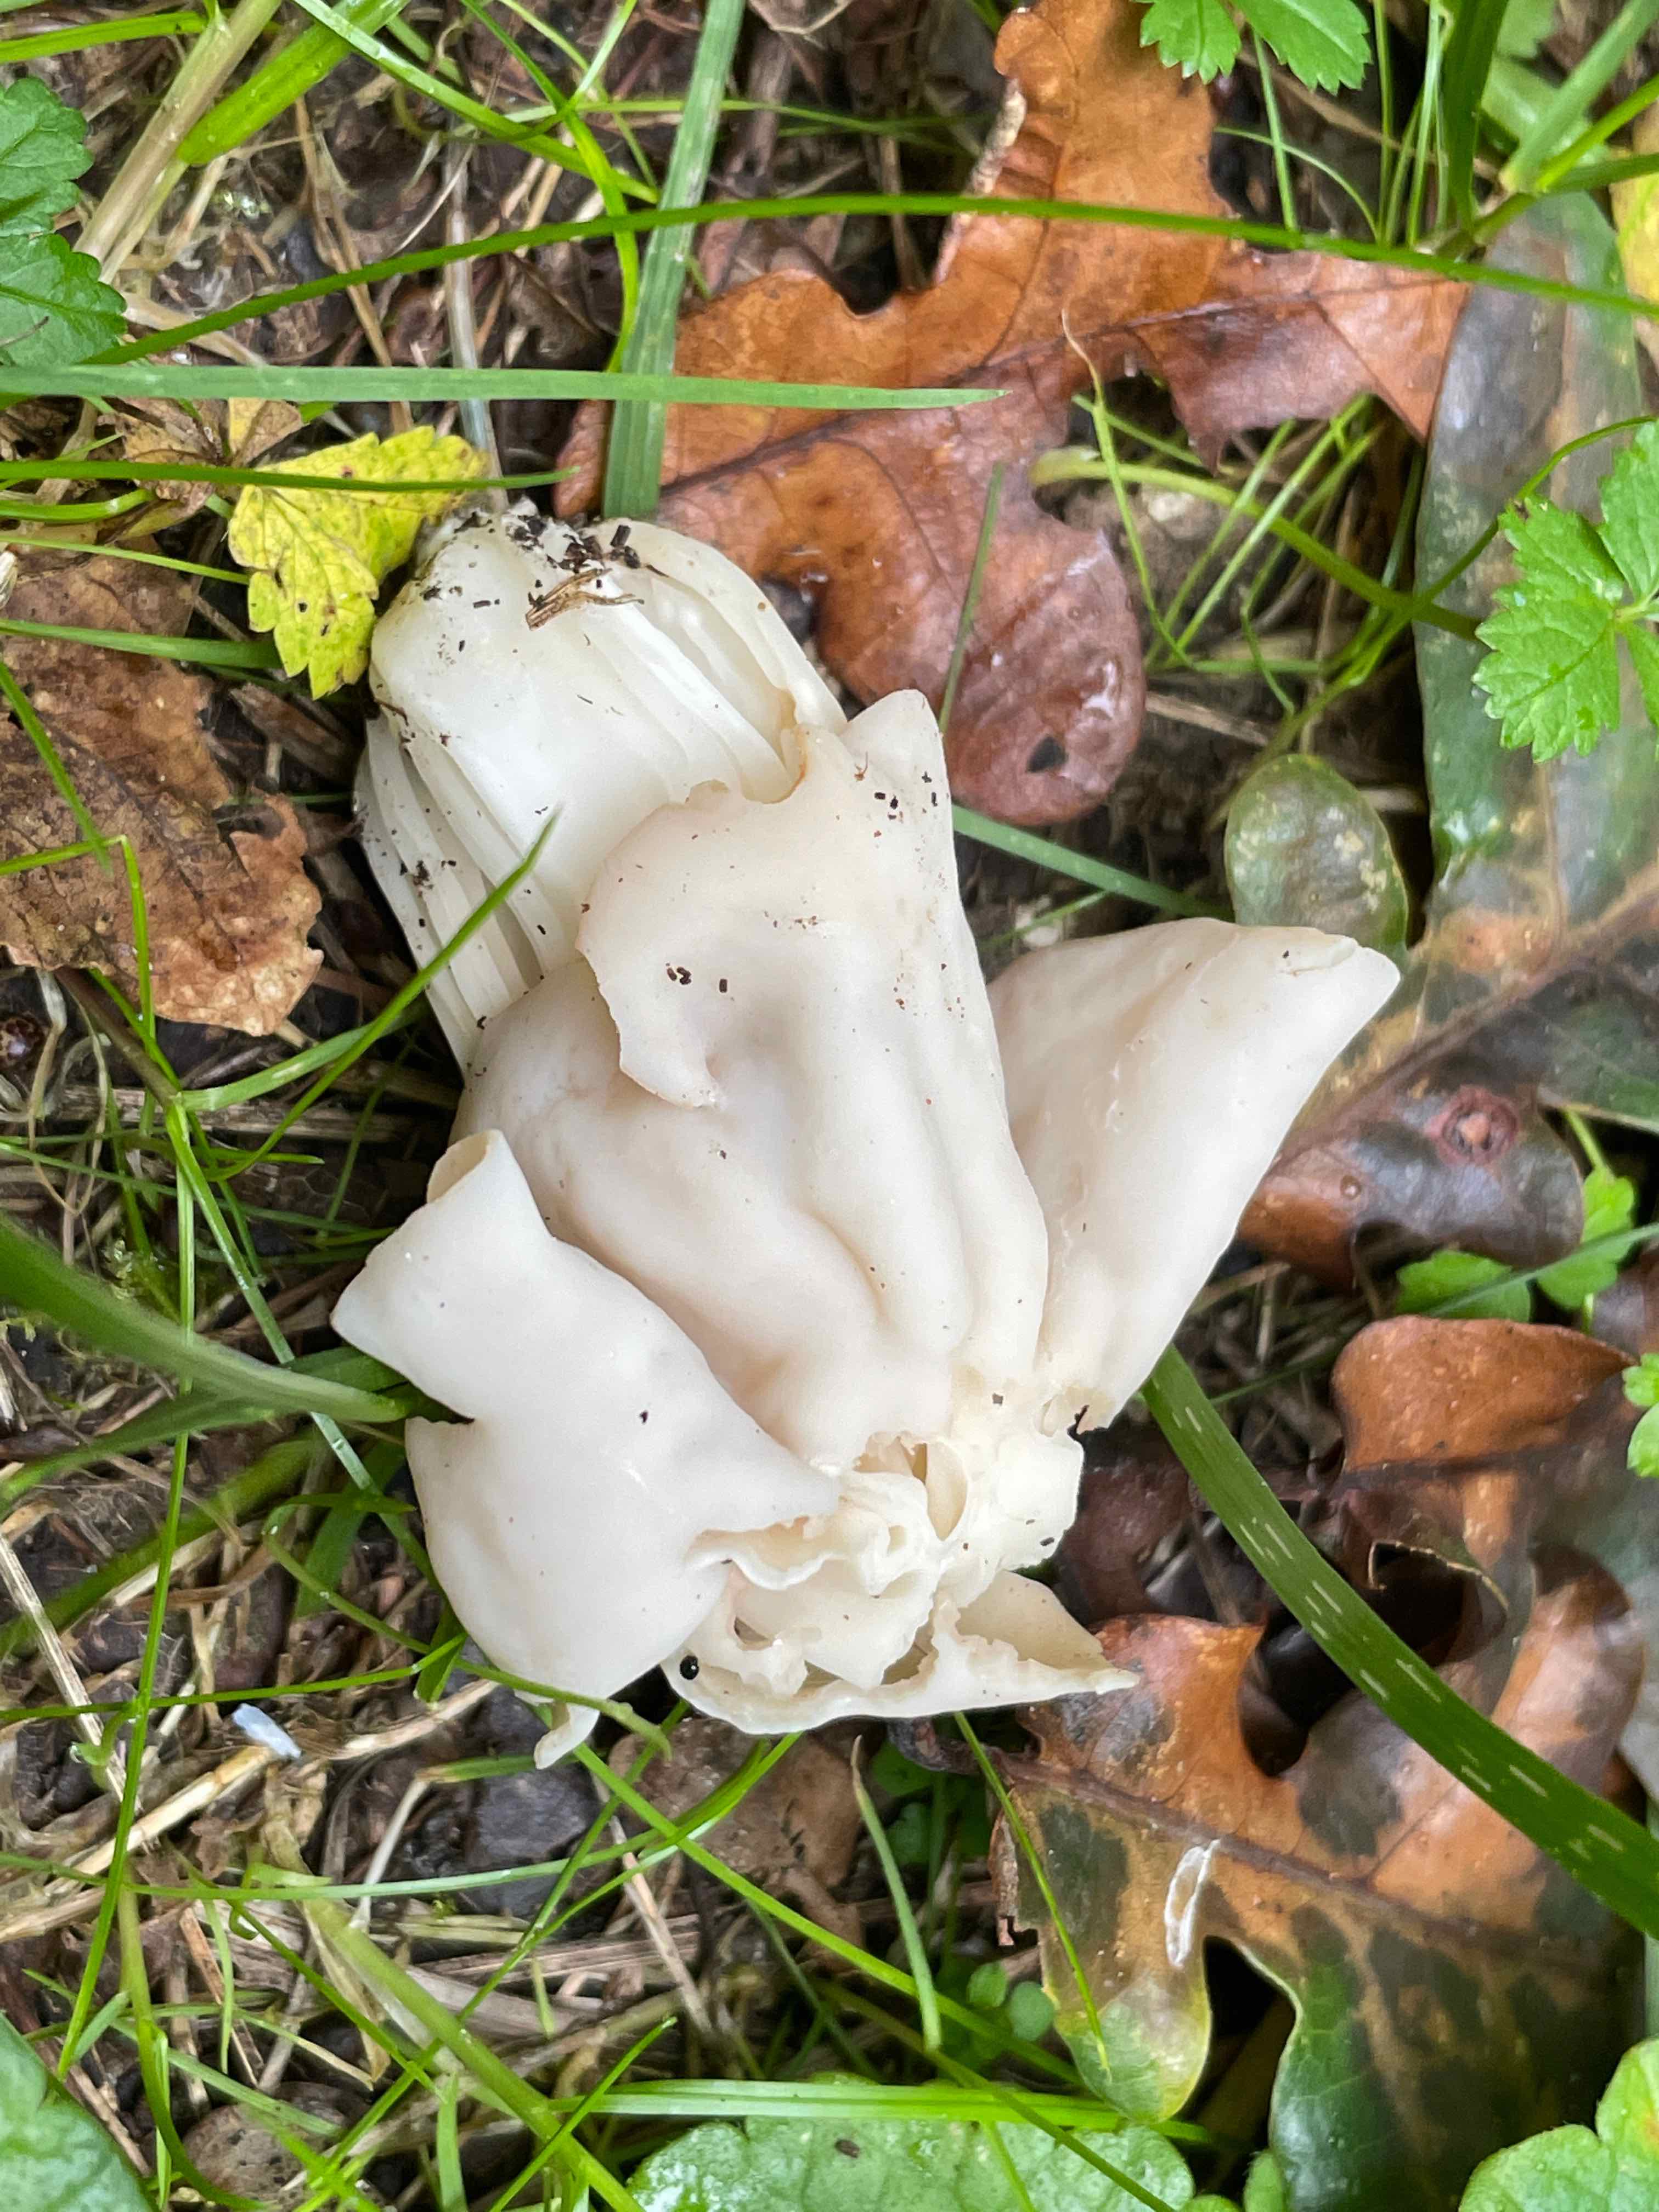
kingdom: Fungi
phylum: Ascomycota
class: Pezizomycetes
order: Pezizales
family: Helvellaceae
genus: Helvella
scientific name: Helvella crispa
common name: kruset foldhat
